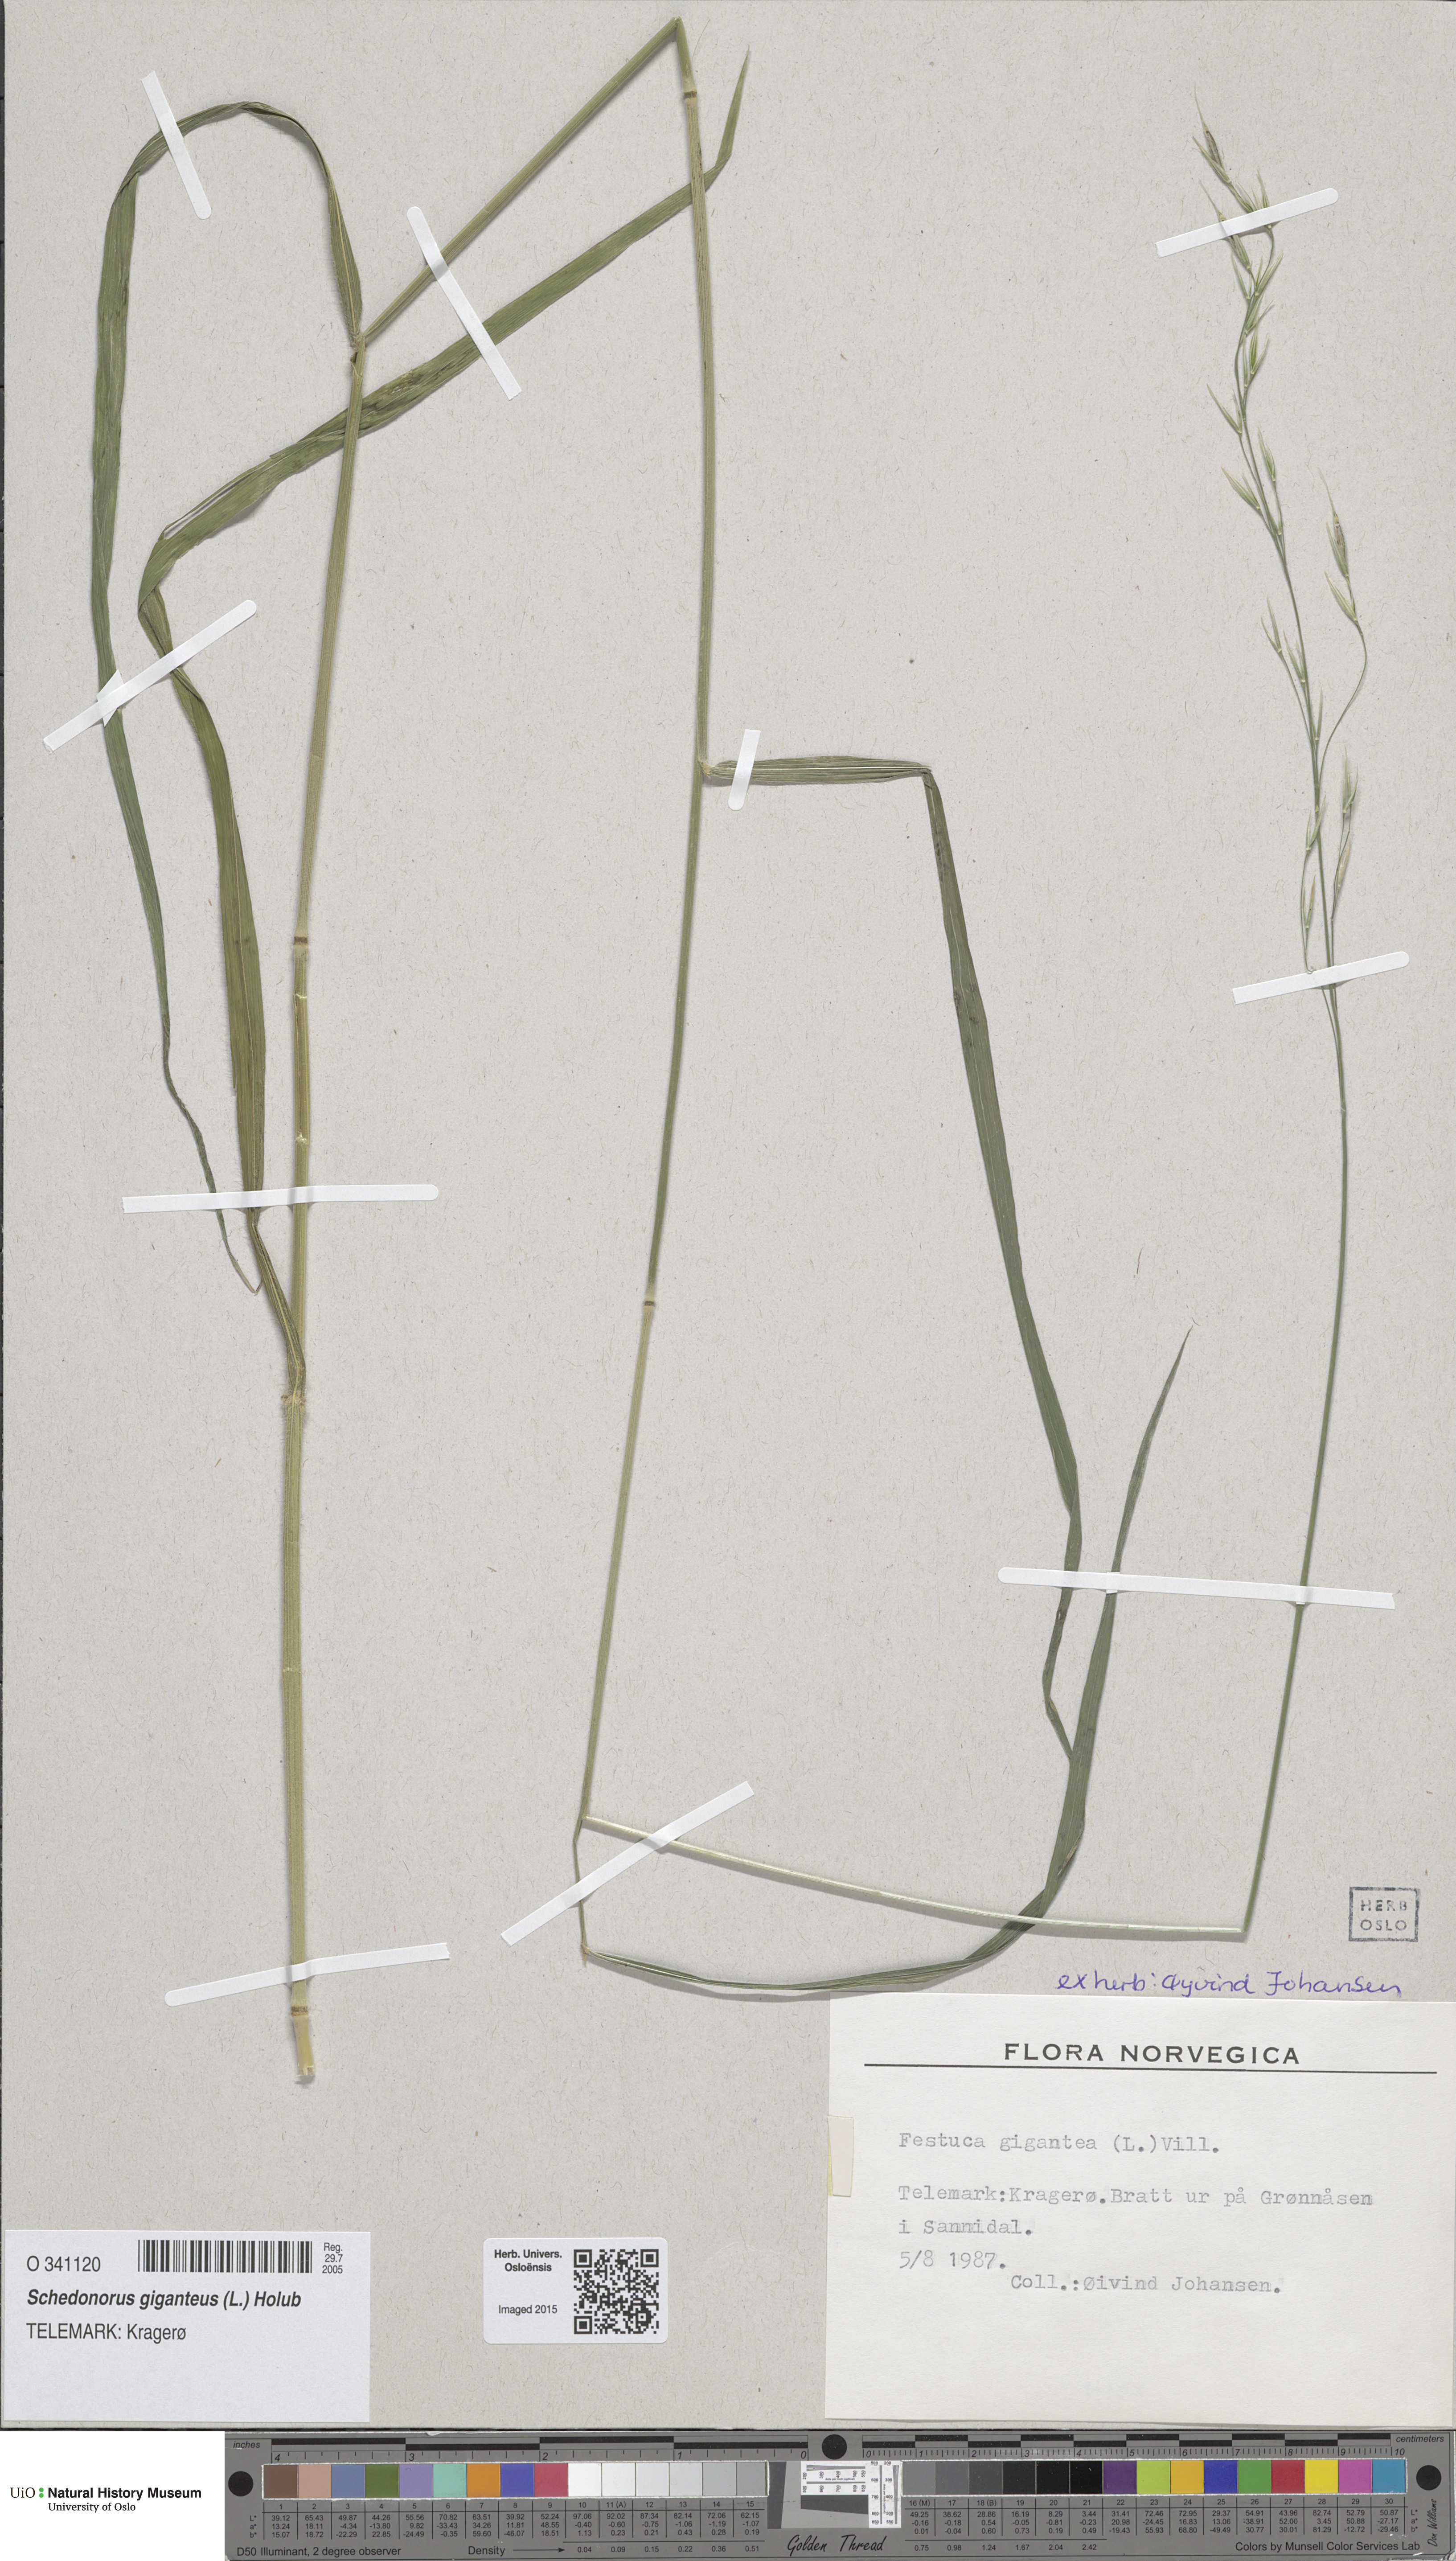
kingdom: Plantae
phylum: Tracheophyta
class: Liliopsida
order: Poales
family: Poaceae
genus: Lolium
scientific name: Lolium giganteum
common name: Giant fescue
